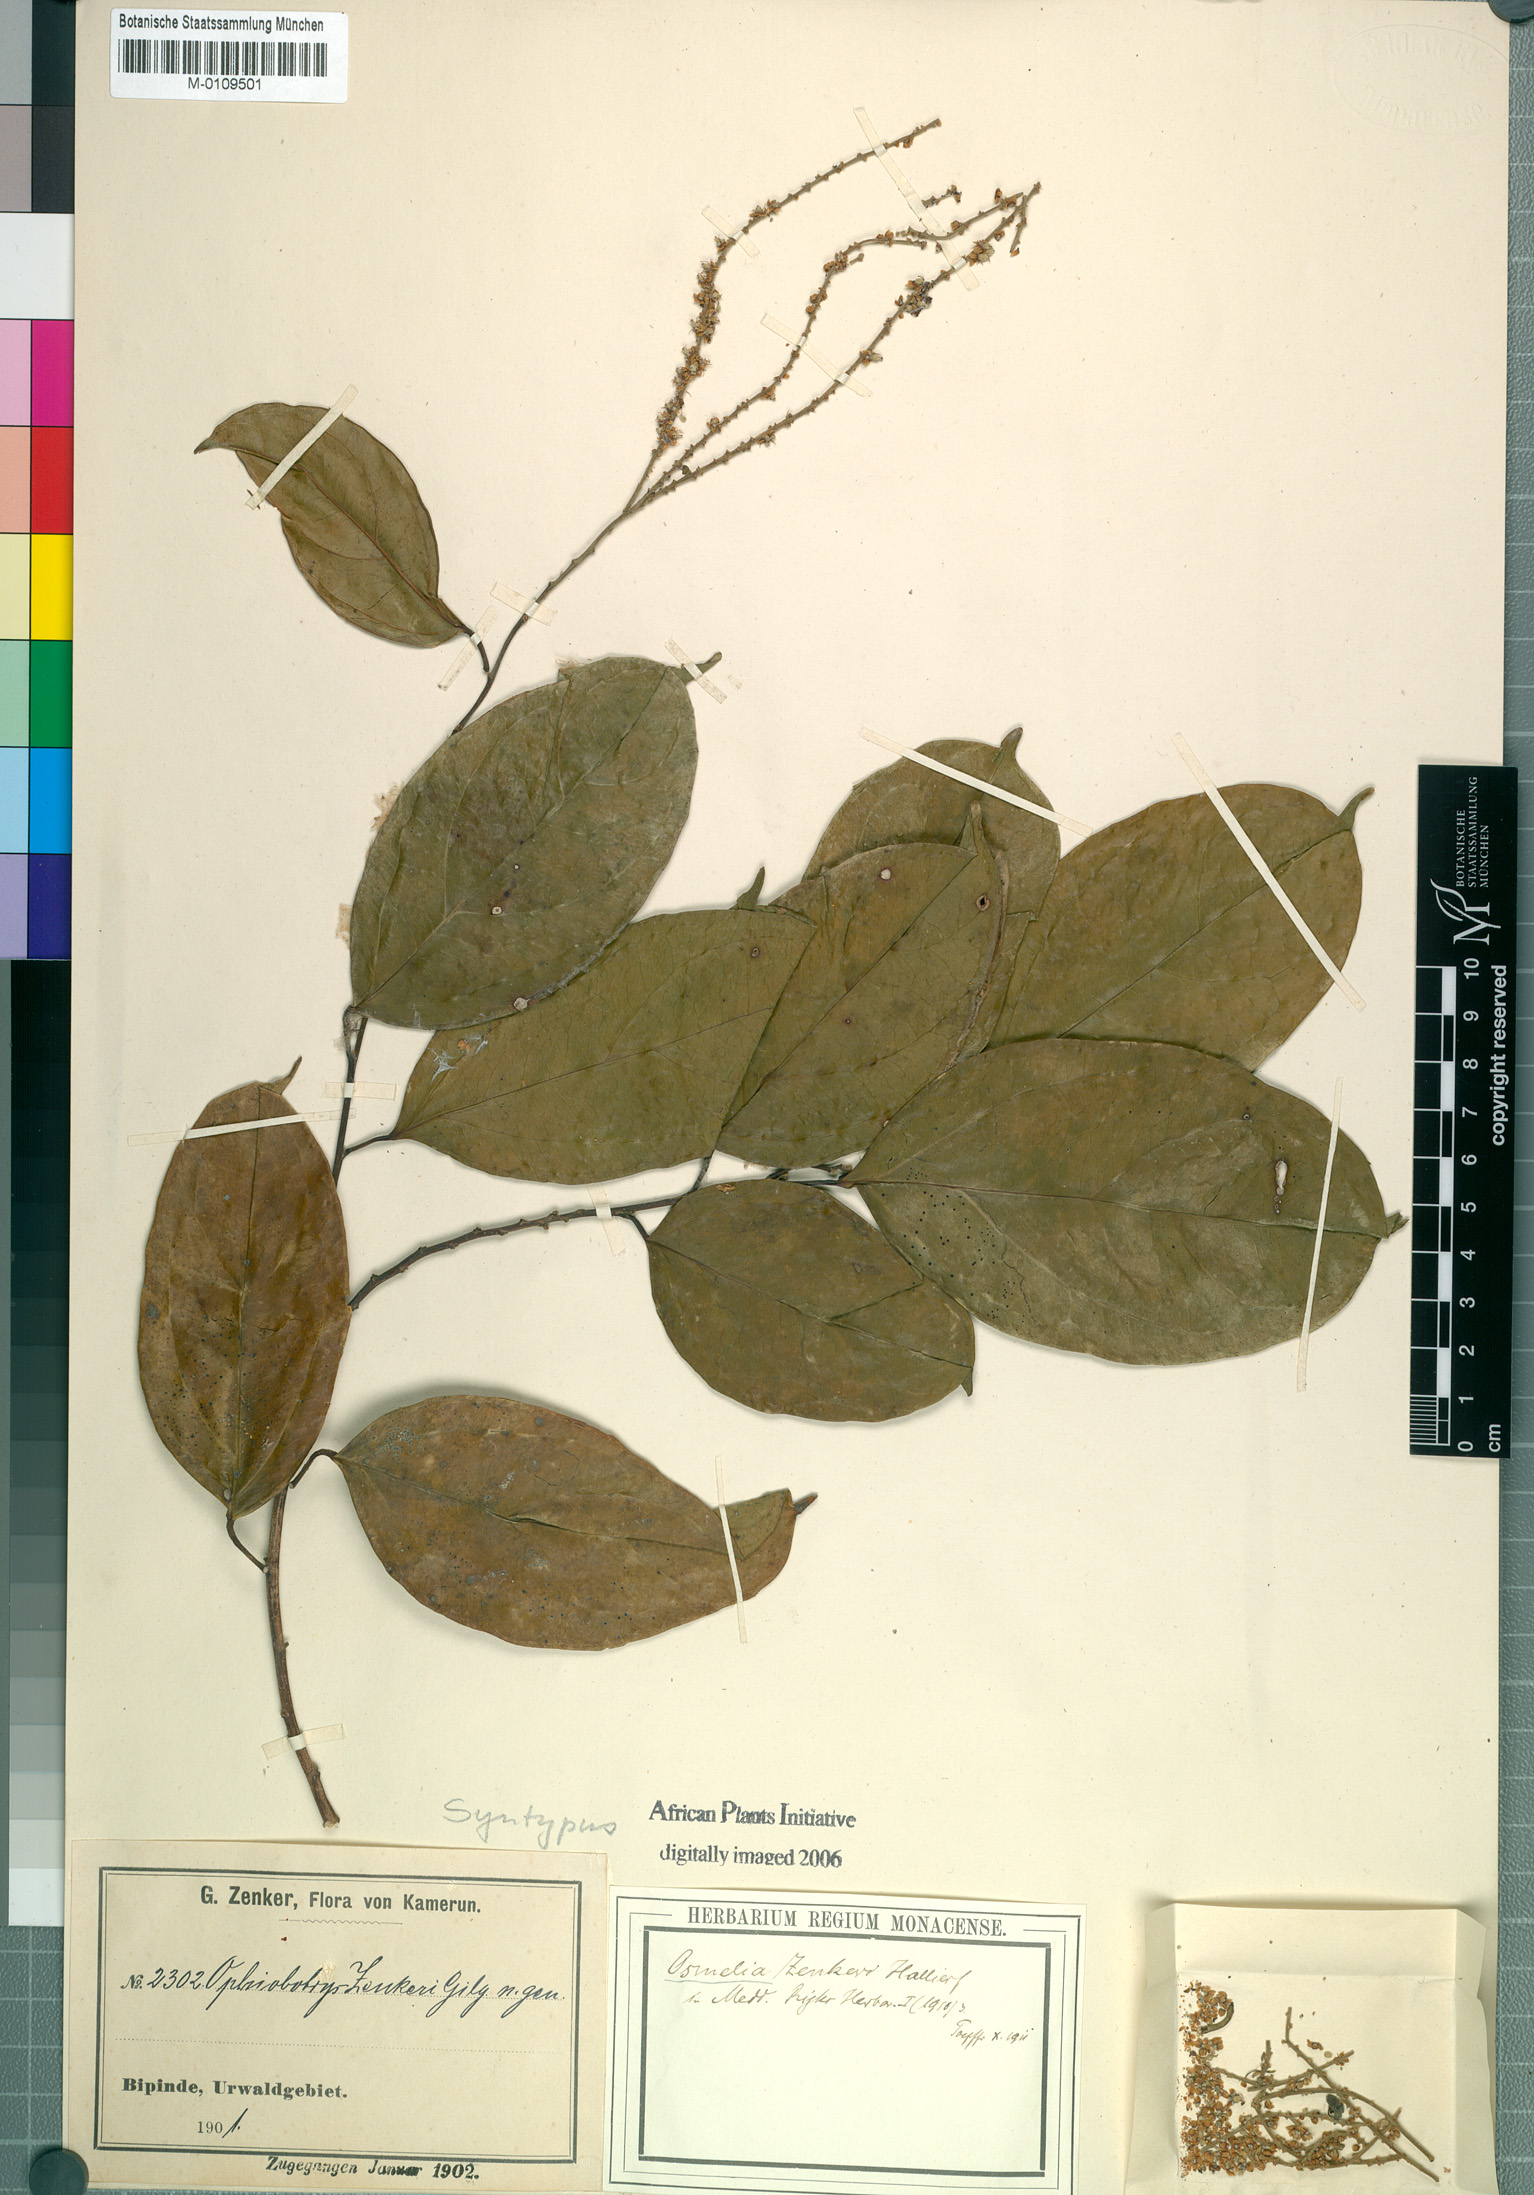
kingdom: Plantae
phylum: Tracheophyta
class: Magnoliopsida
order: Malpighiales
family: Salicaceae
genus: Ophiobotrys
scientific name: Ophiobotrys zenkeri
